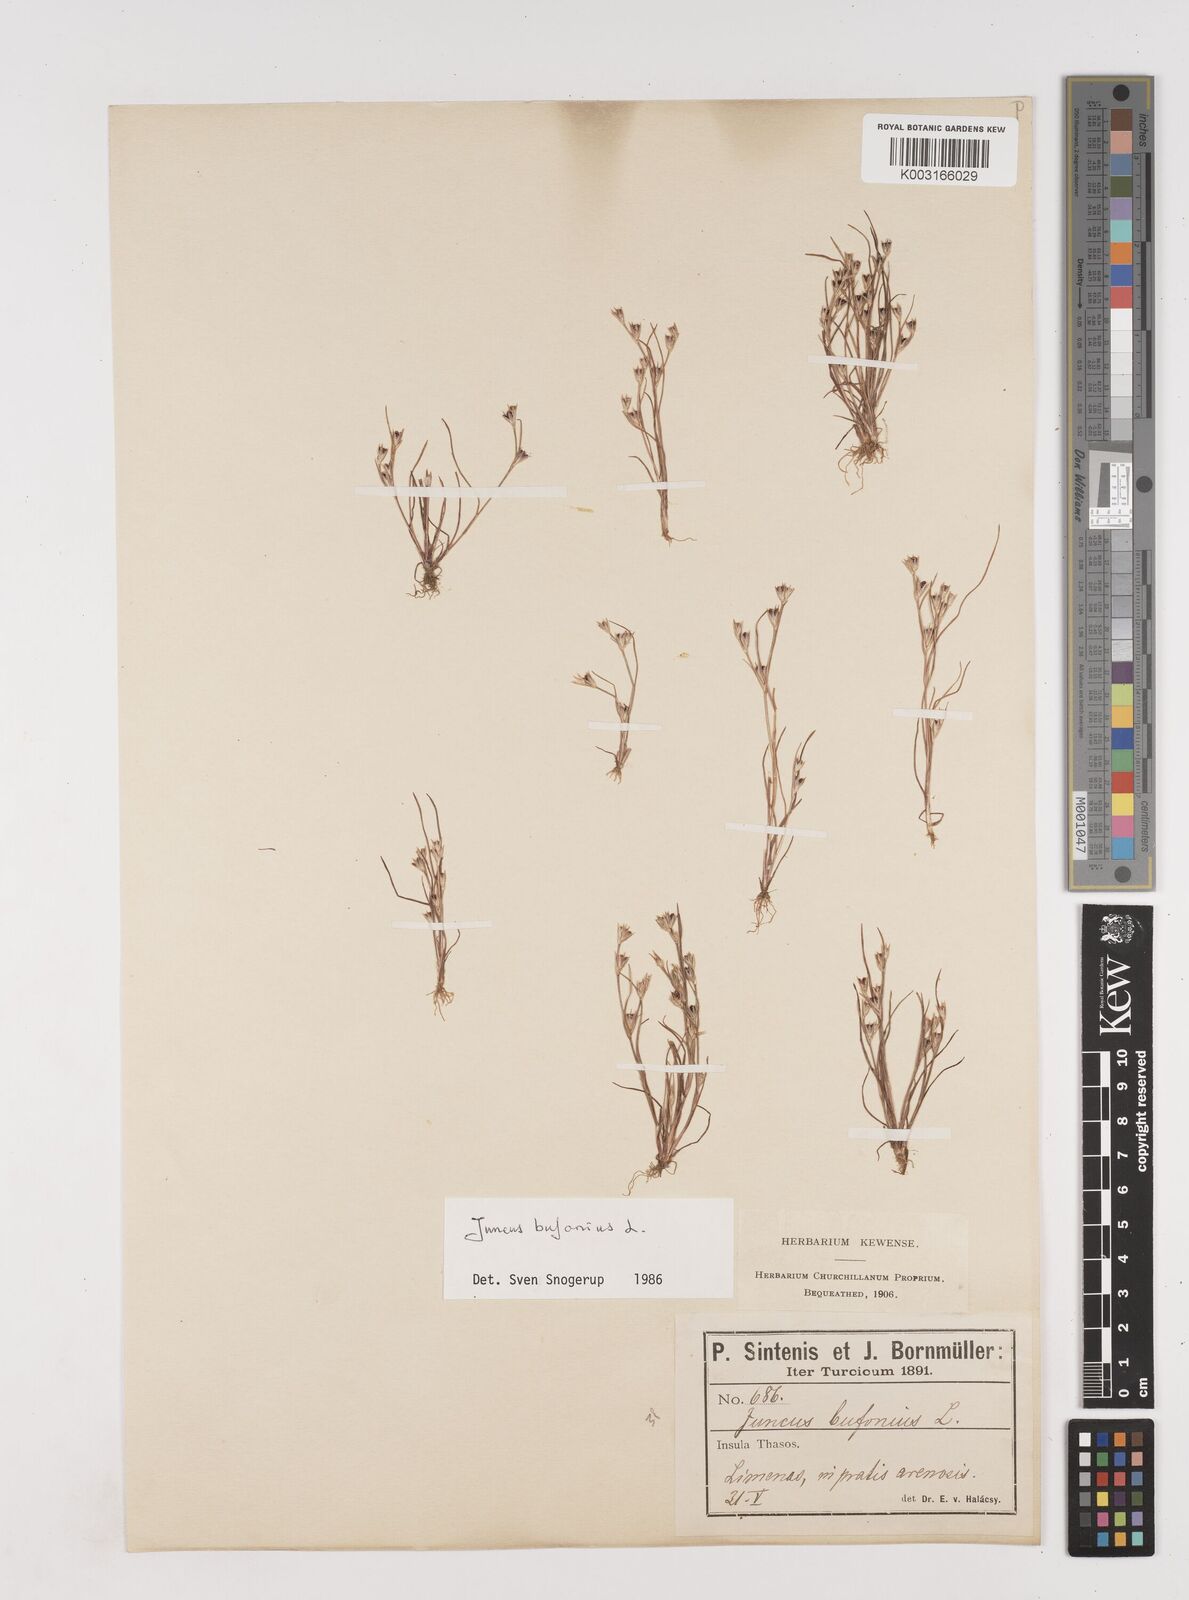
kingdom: Plantae
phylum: Tracheophyta
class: Liliopsida
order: Poales
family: Juncaceae
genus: Juncus
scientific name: Juncus bufonius
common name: Toad rush
